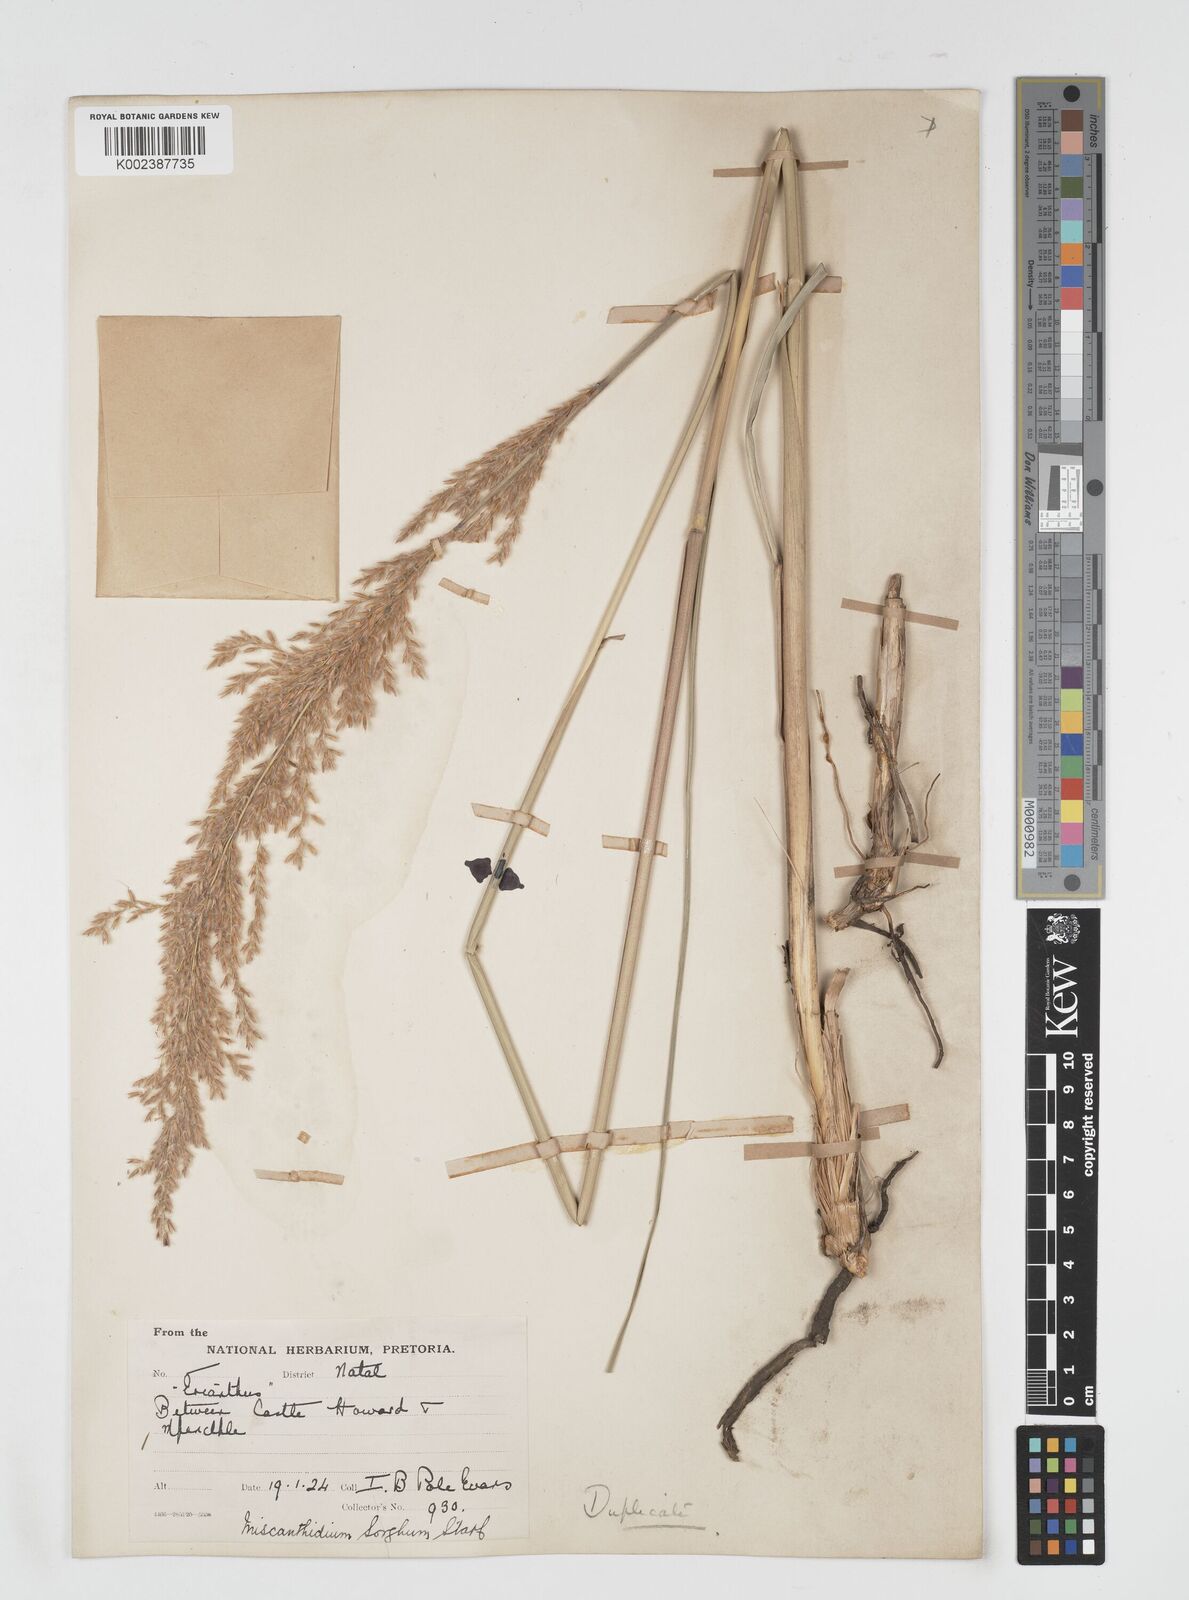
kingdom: Plantae
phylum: Tracheophyta
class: Liliopsida
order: Poales
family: Poaceae
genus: Miscanthus
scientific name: Miscanthus ecklonii
